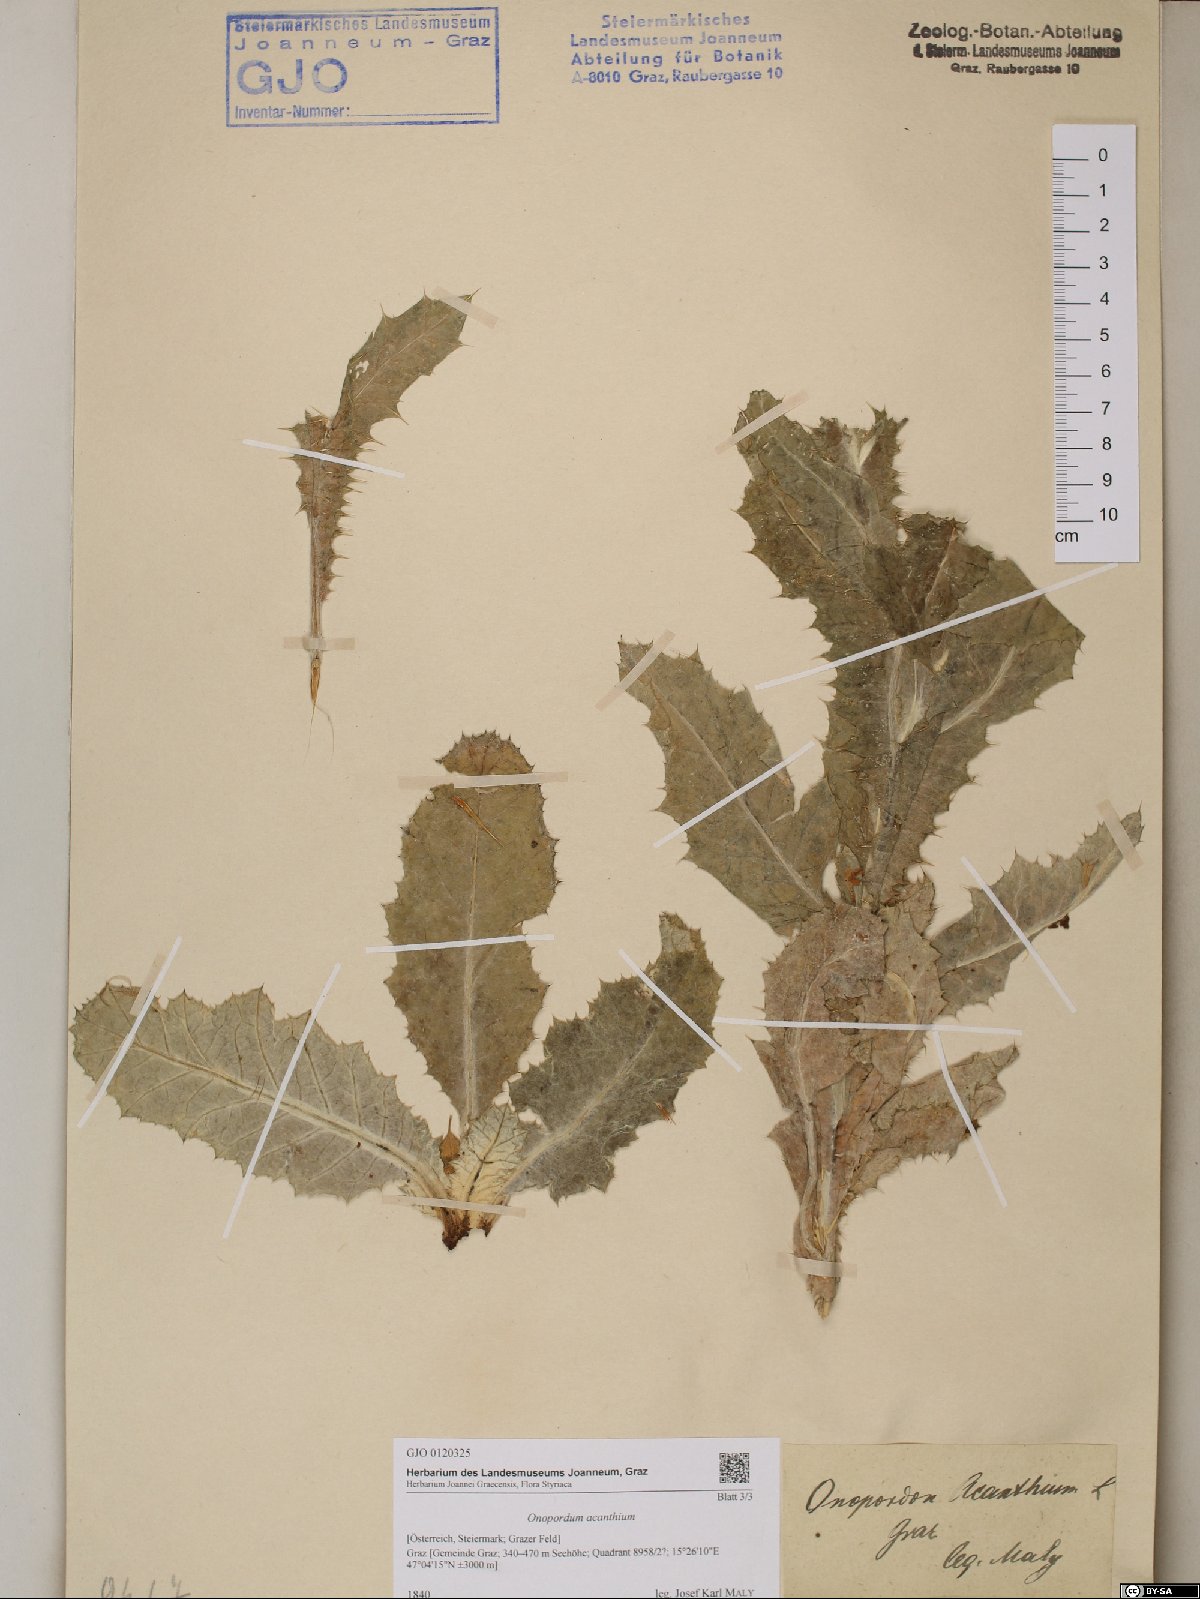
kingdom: Plantae
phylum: Tracheophyta
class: Magnoliopsida
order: Asterales
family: Asteraceae
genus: Onopordum
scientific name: Onopordum acanthium
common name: Scotch thistle
